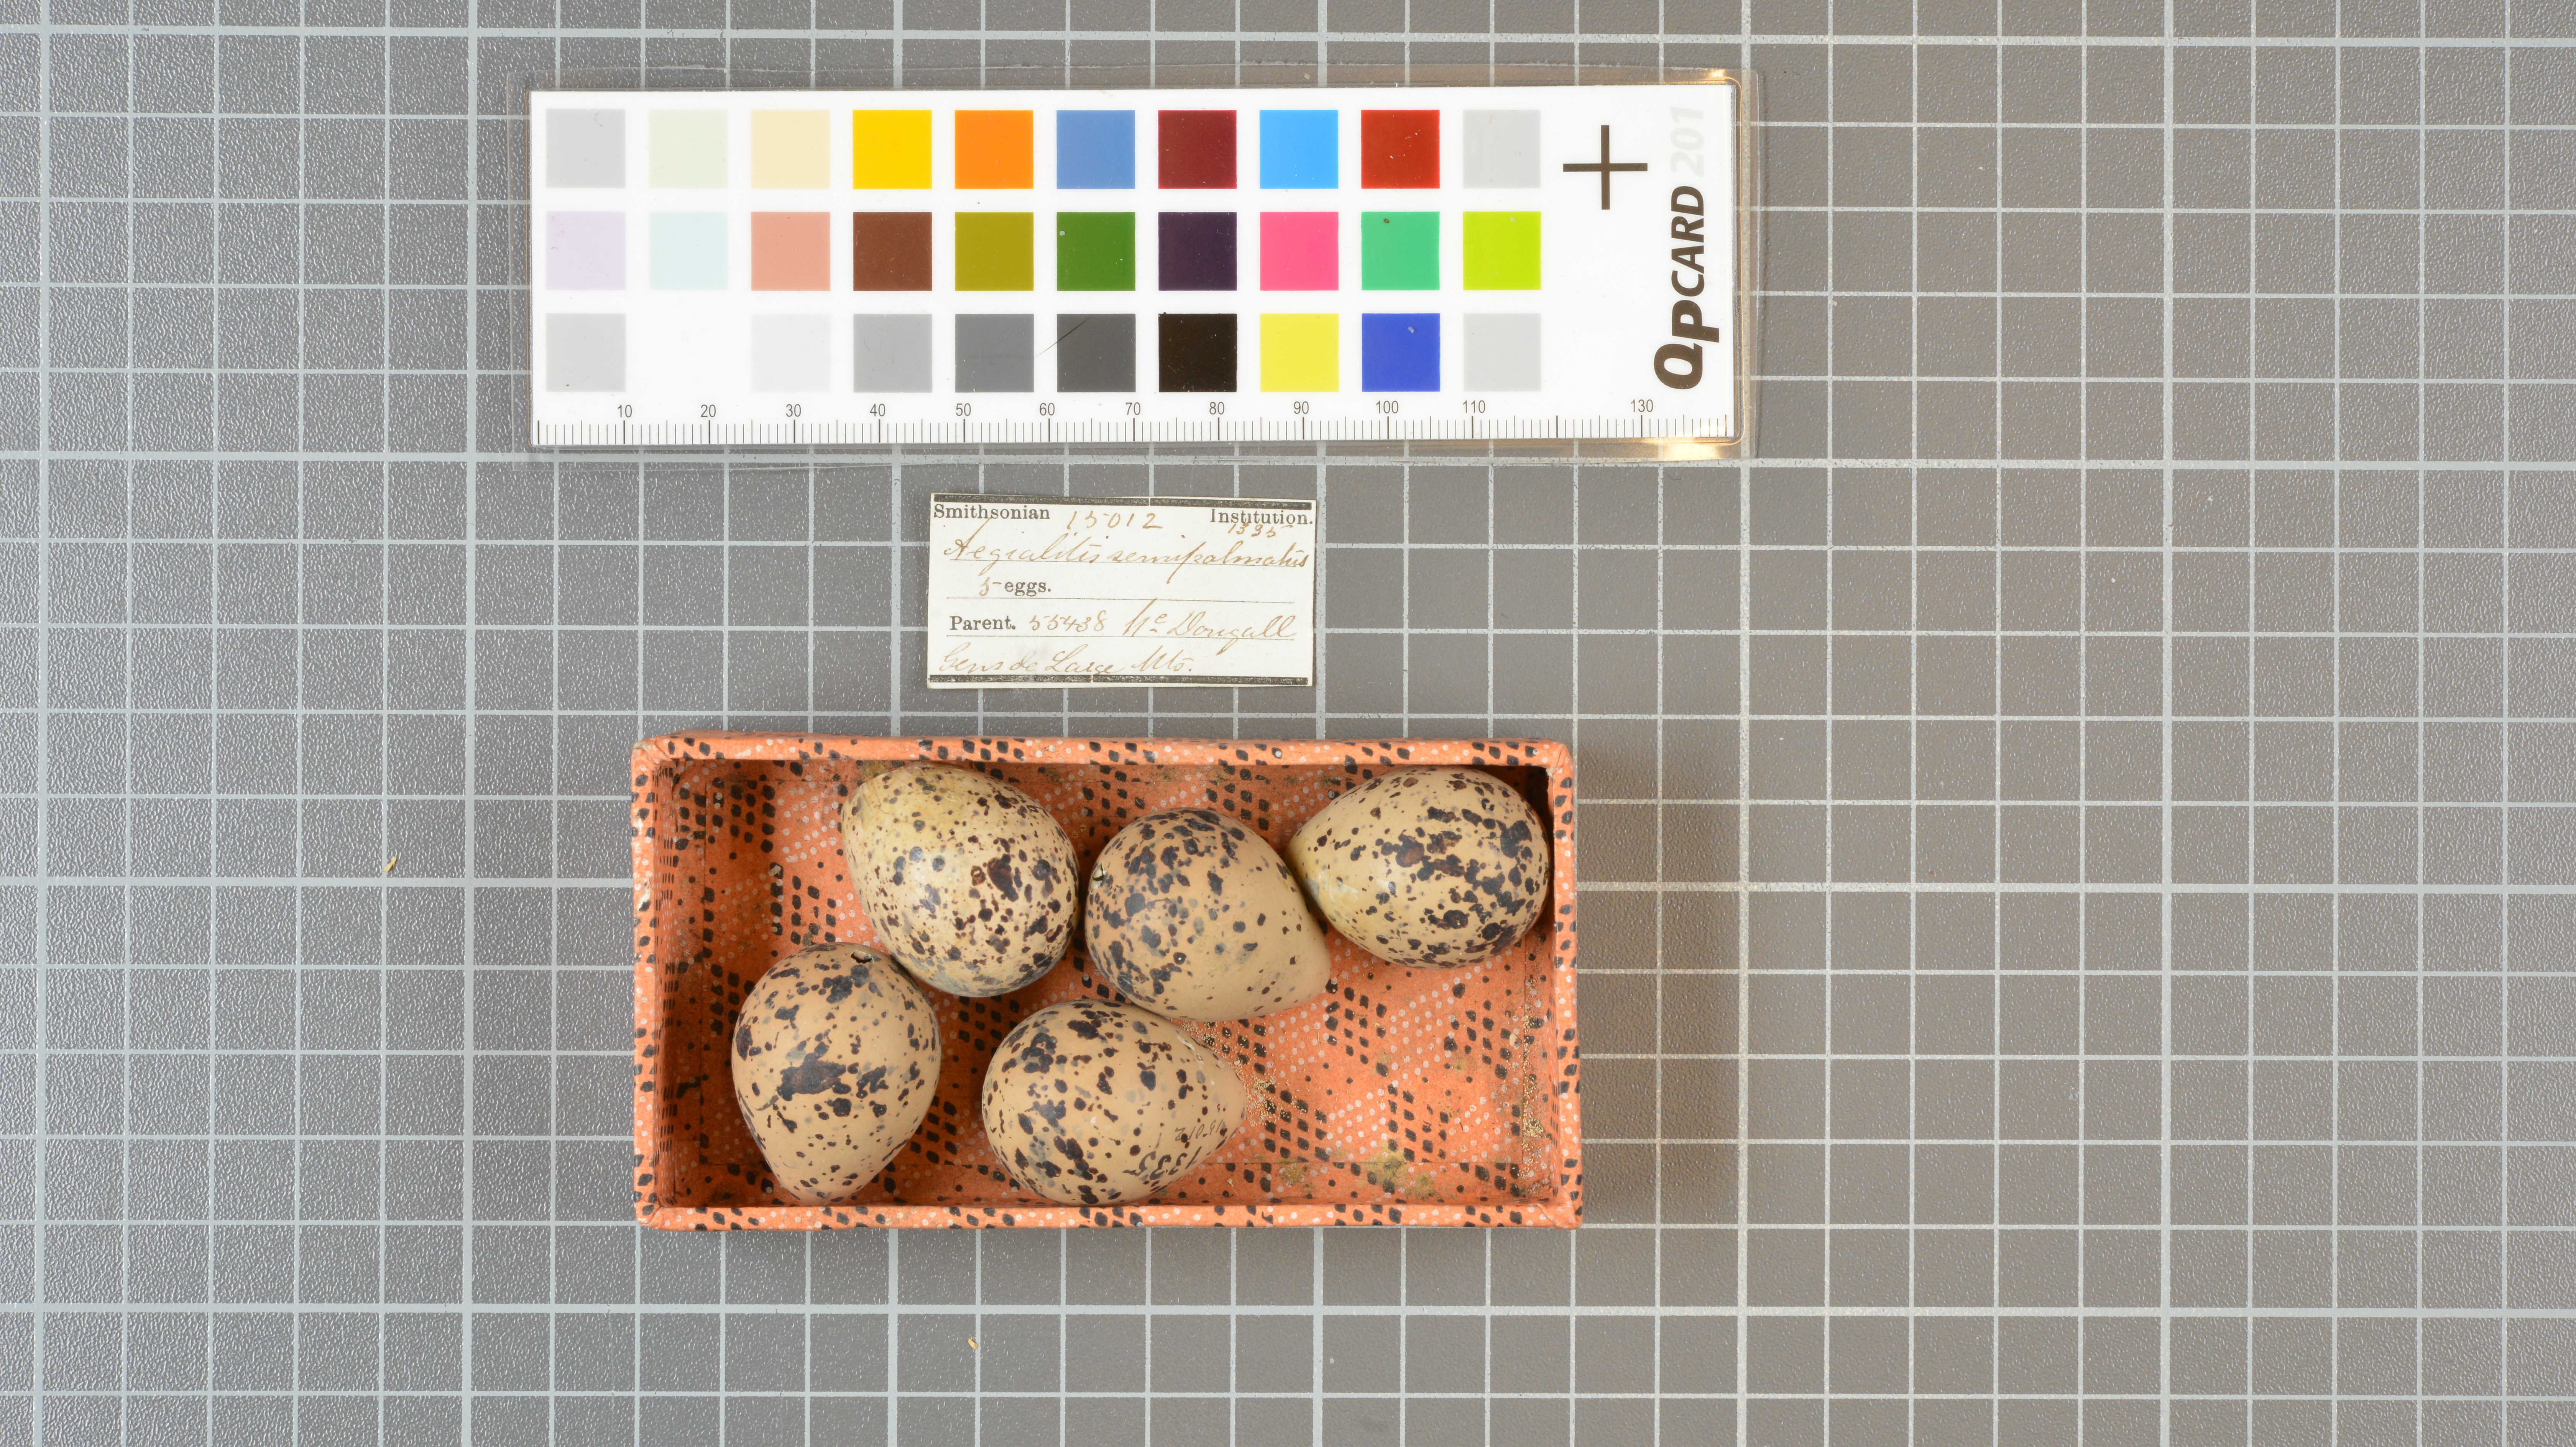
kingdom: Animalia
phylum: Chordata
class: Aves
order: Charadriiformes
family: Charadriidae
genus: Charadrius
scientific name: Charadrius semipalmatus
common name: Semipalmated plover
